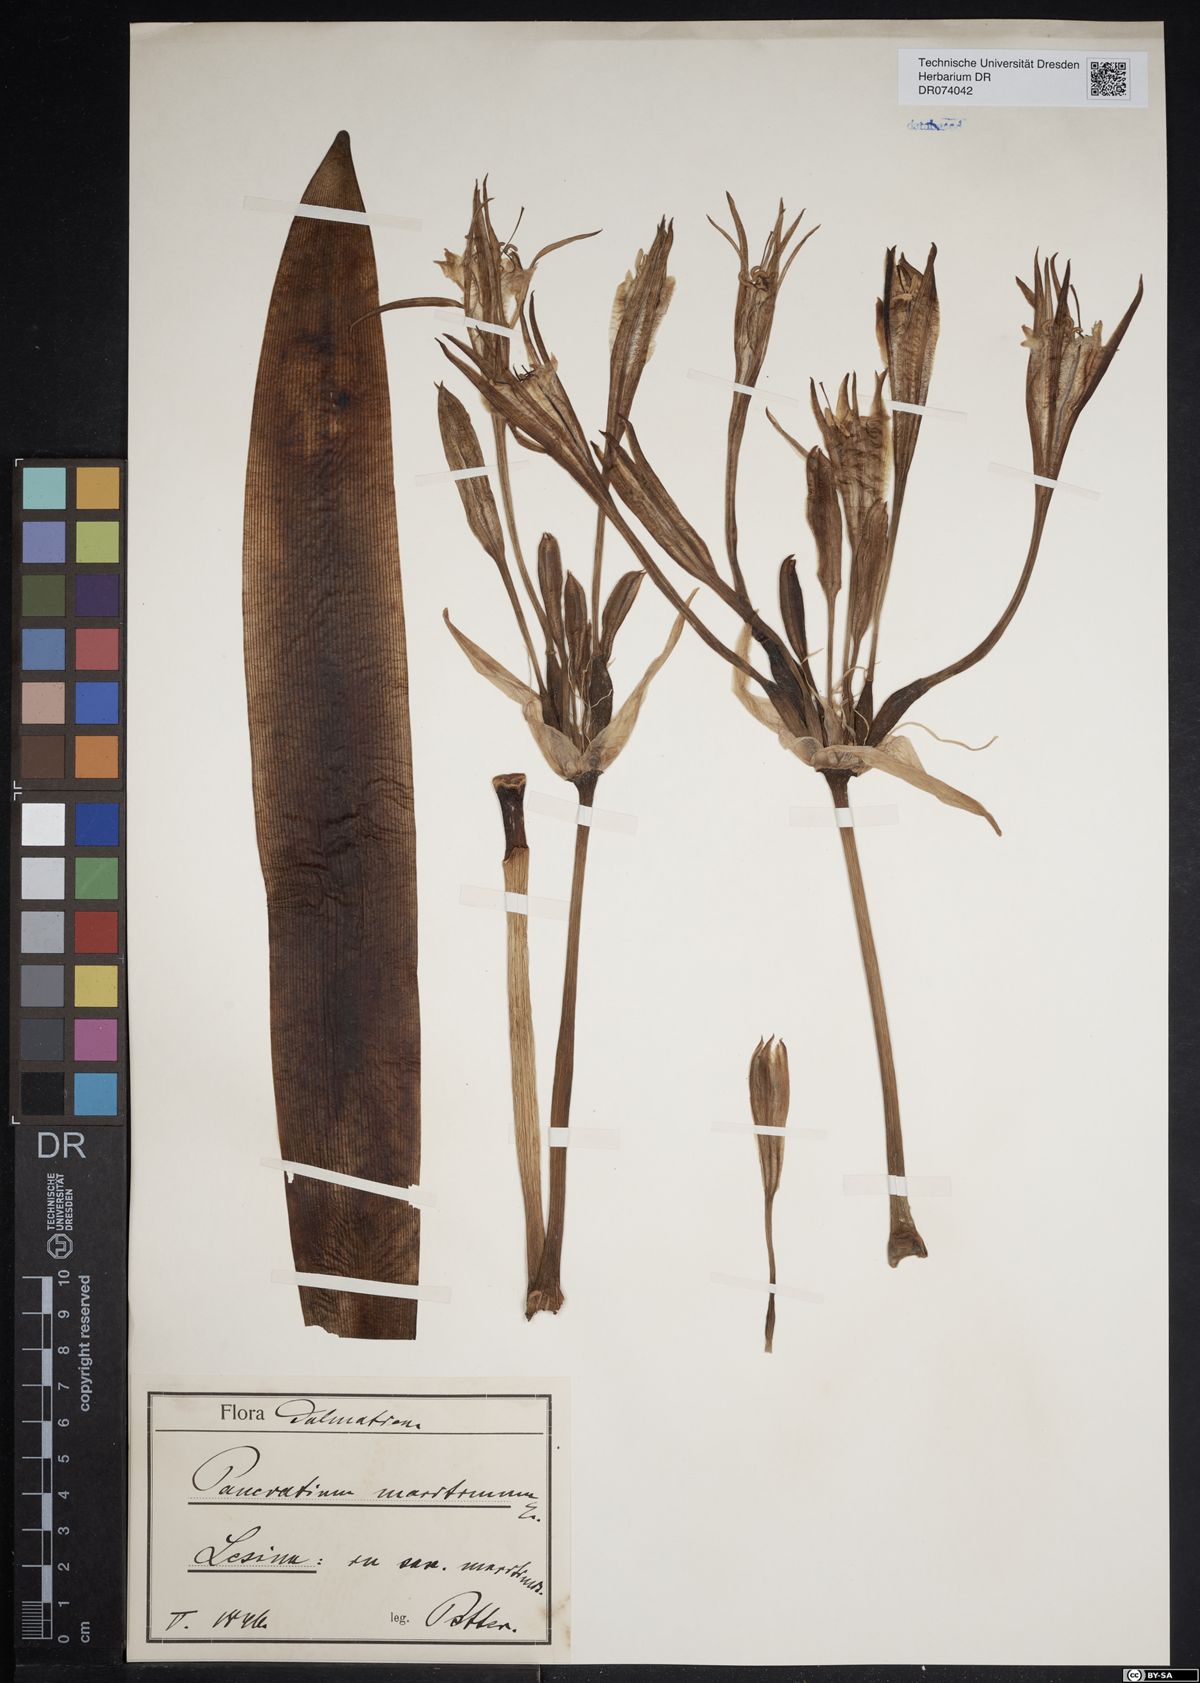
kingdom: Plantae
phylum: Tracheophyta
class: Liliopsida
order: Asparagales
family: Amaryllidaceae
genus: Pancratium
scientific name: Pancratium maritimum
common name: Sea-daffodil
